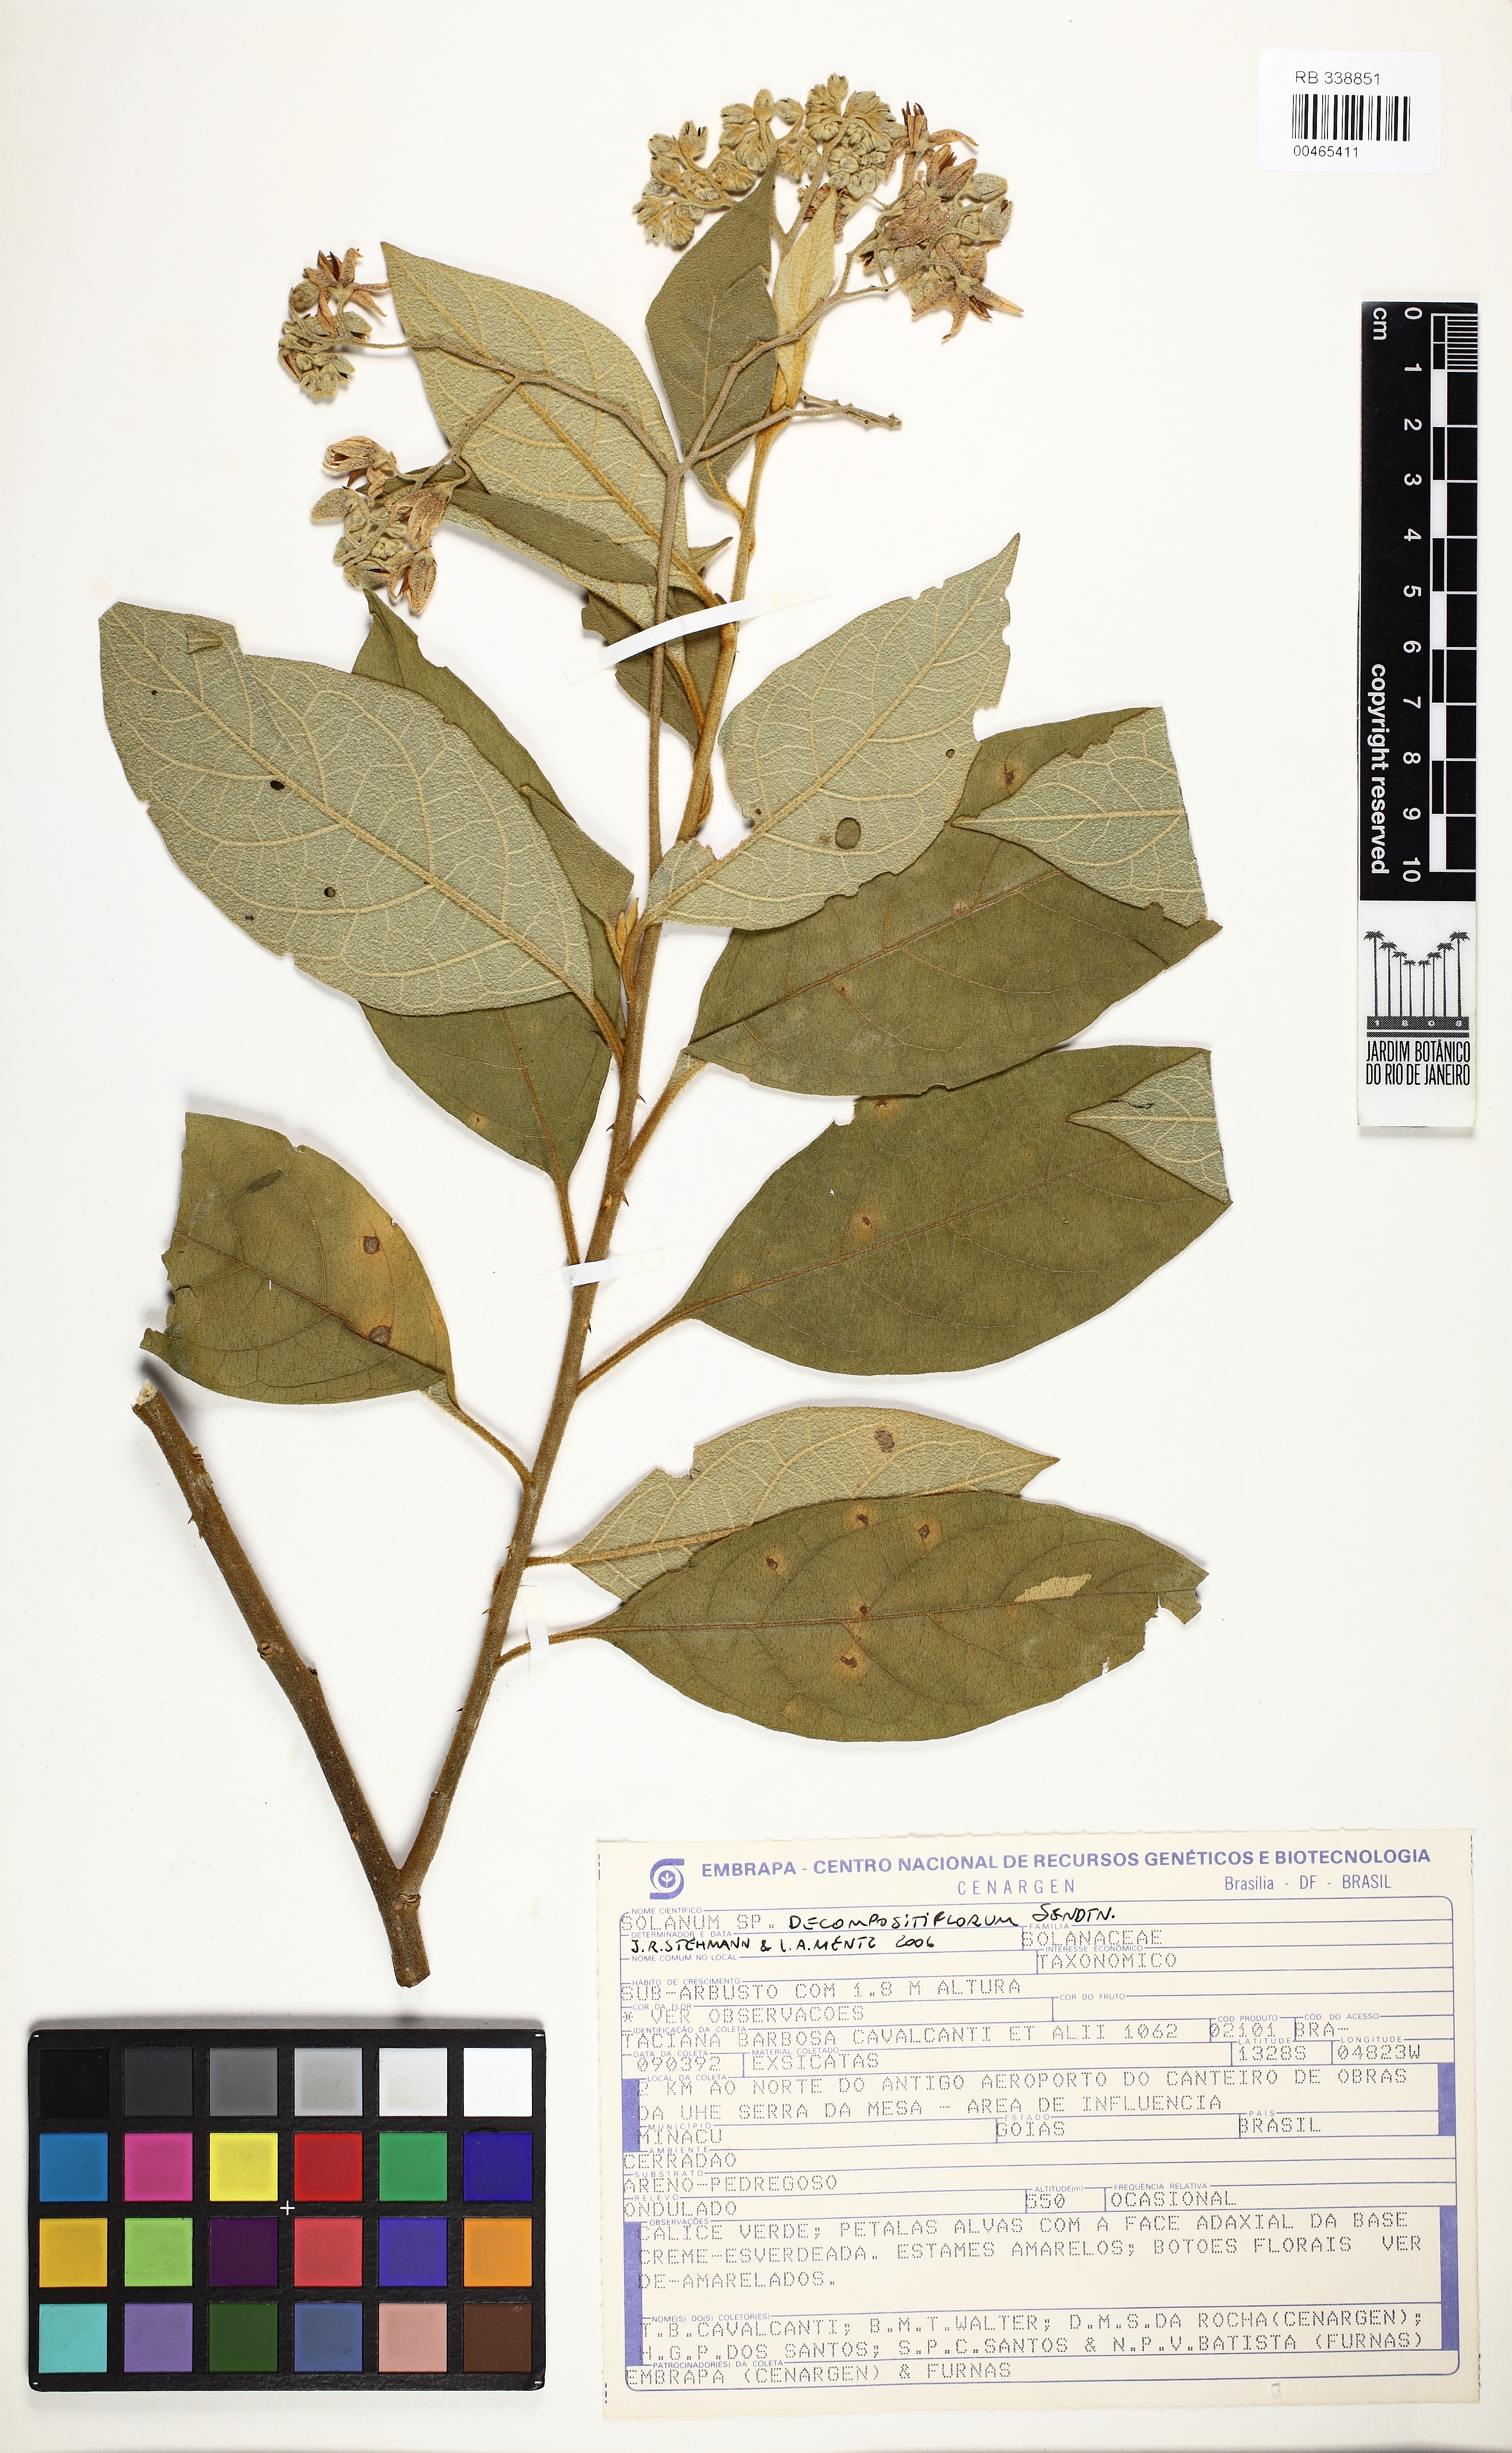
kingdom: Plantae
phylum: Tracheophyta
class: Magnoliopsida
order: Solanales
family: Solanaceae
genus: Solanum
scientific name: Solanum decompositiflorum
